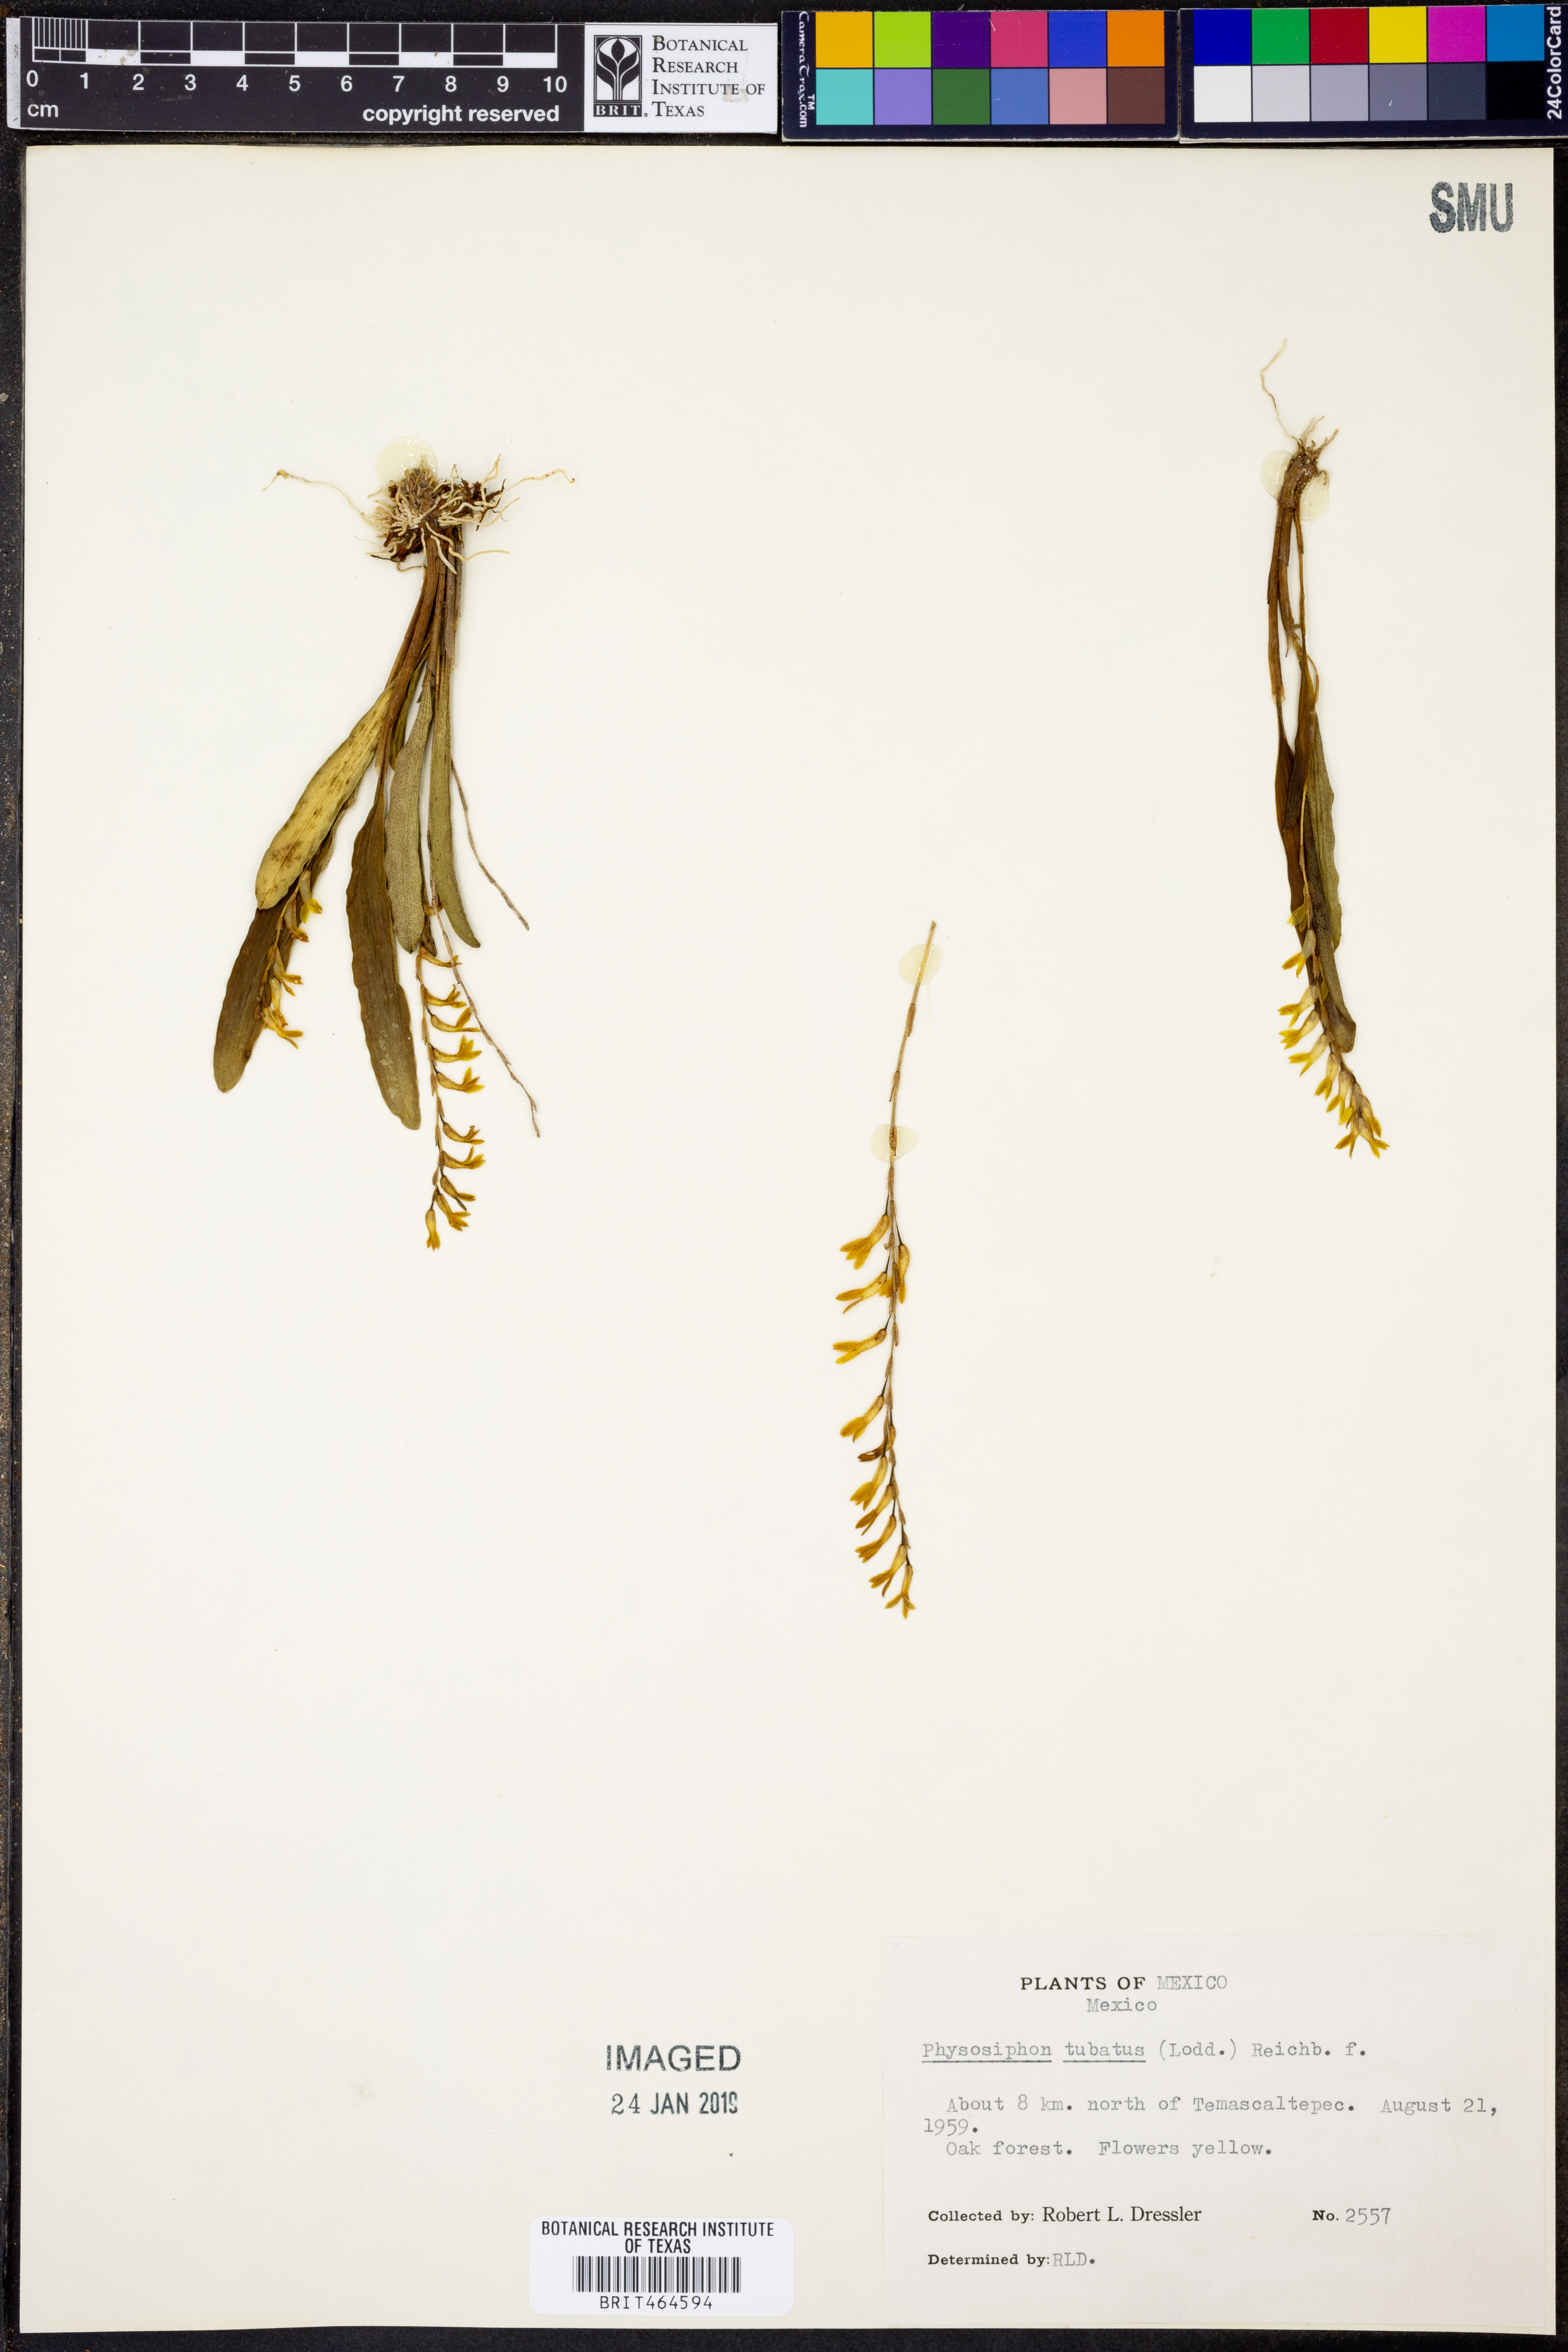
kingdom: Plantae
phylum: Tracheophyta
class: Liliopsida
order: Asparagales
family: Orchidaceae
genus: Stelis
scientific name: Stelis emarginata
